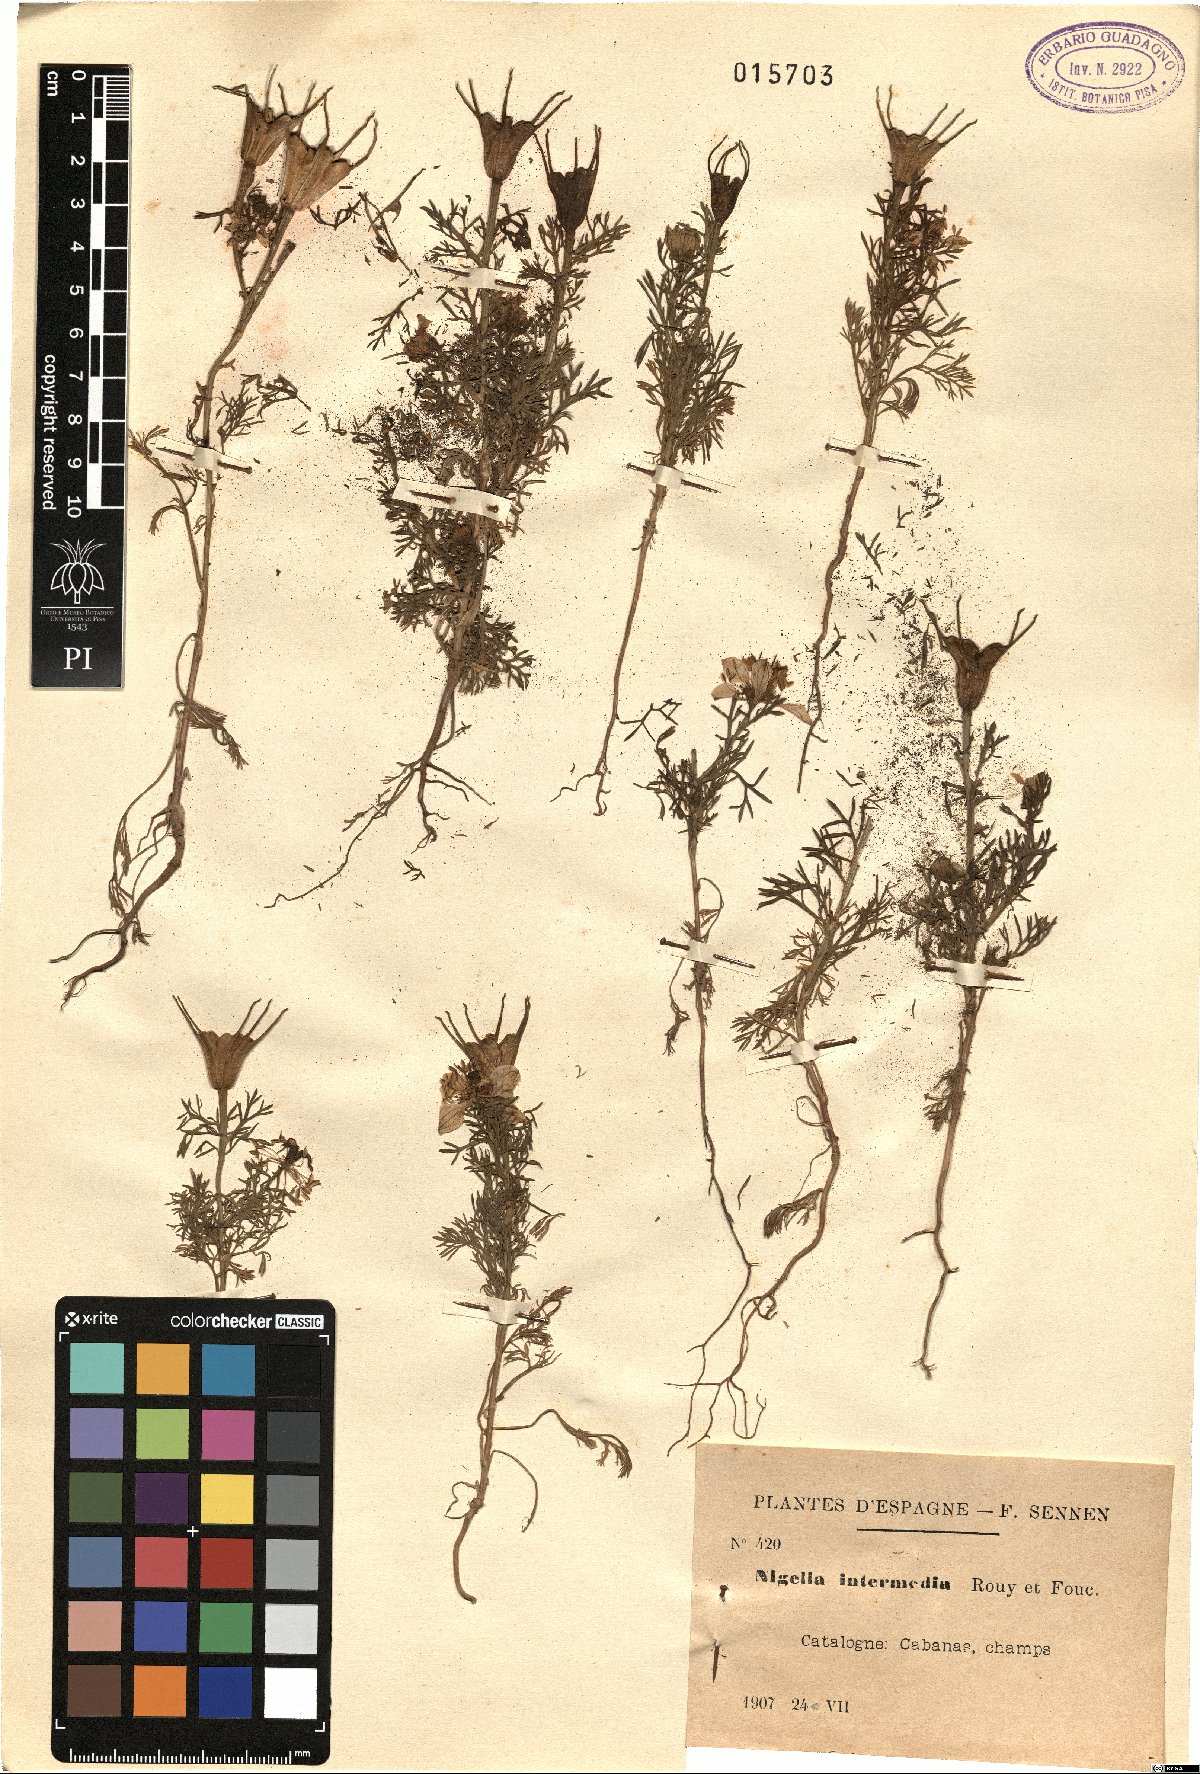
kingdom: Plantae
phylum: Tracheophyta
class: Magnoliopsida
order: Ranunculales
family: Ranunculaceae
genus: Nigella
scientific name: Nigella elata
